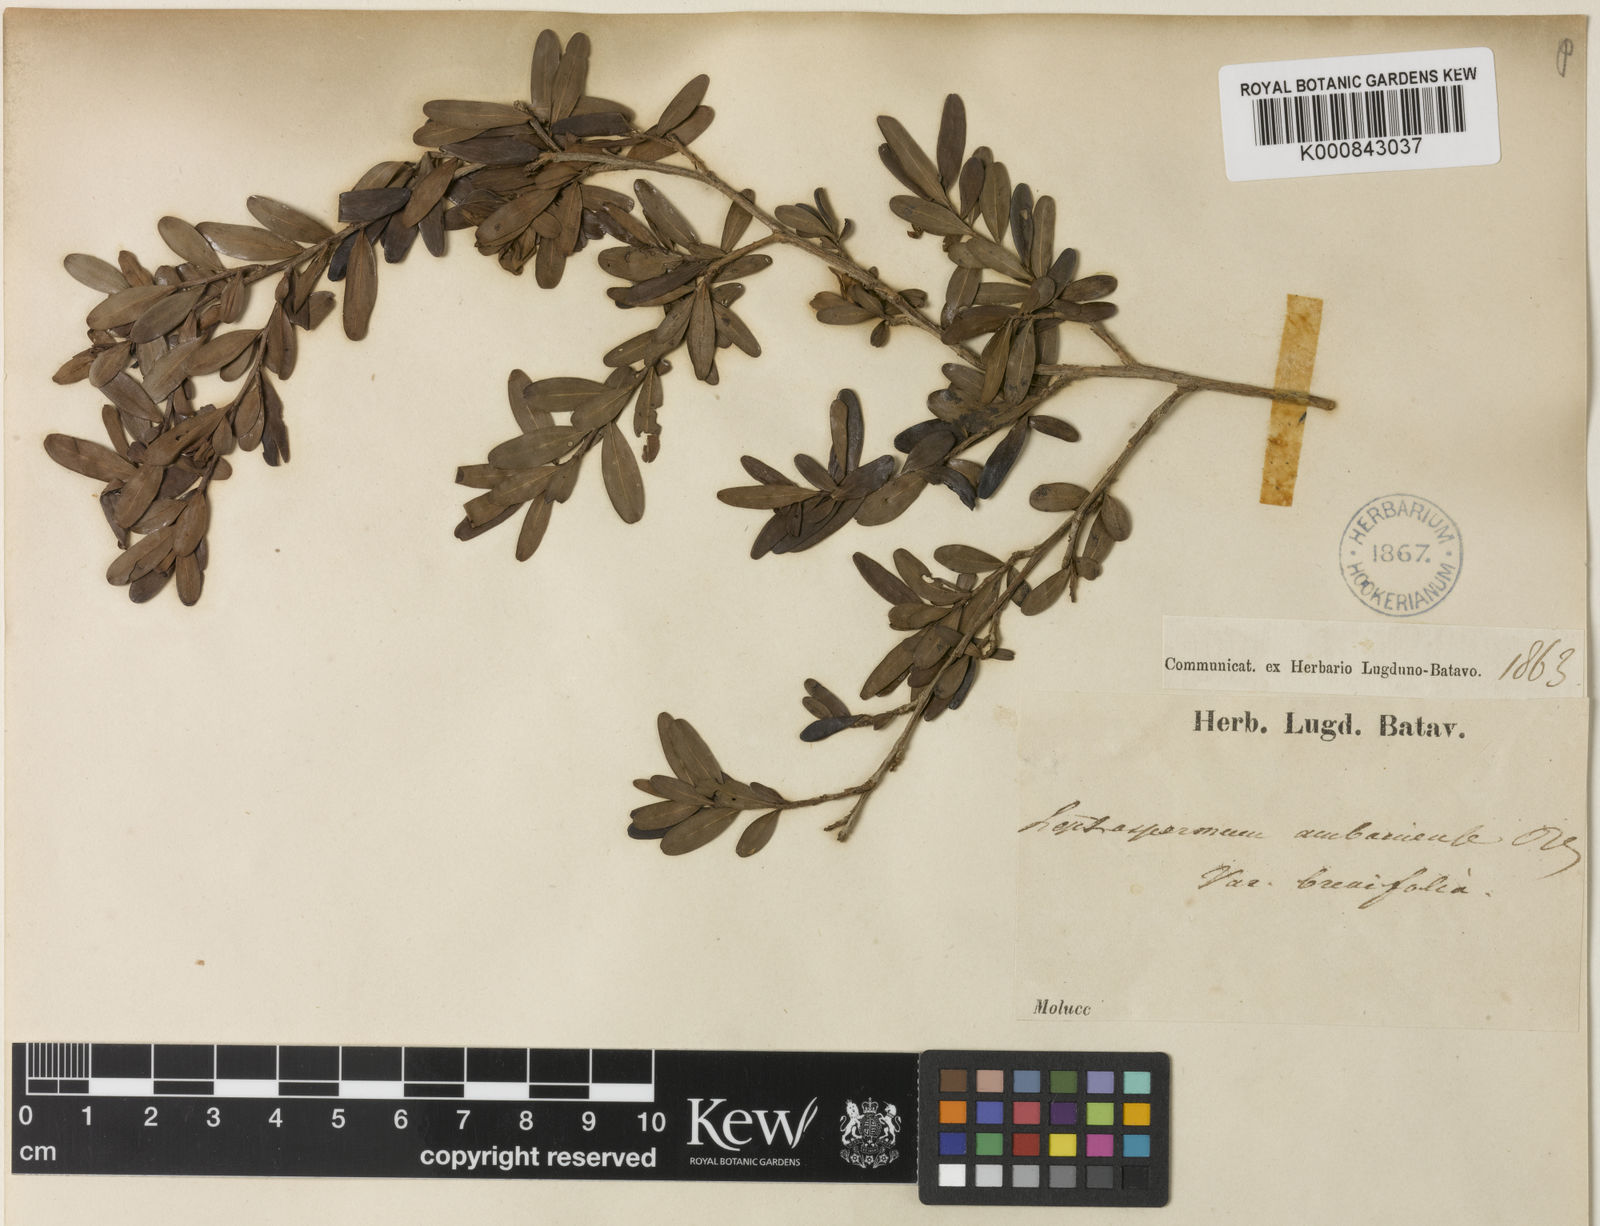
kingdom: Plantae
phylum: Tracheophyta
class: Magnoliopsida
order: Myrtales
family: Myrtaceae
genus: Leptospermum
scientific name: Leptospermum javanicum
